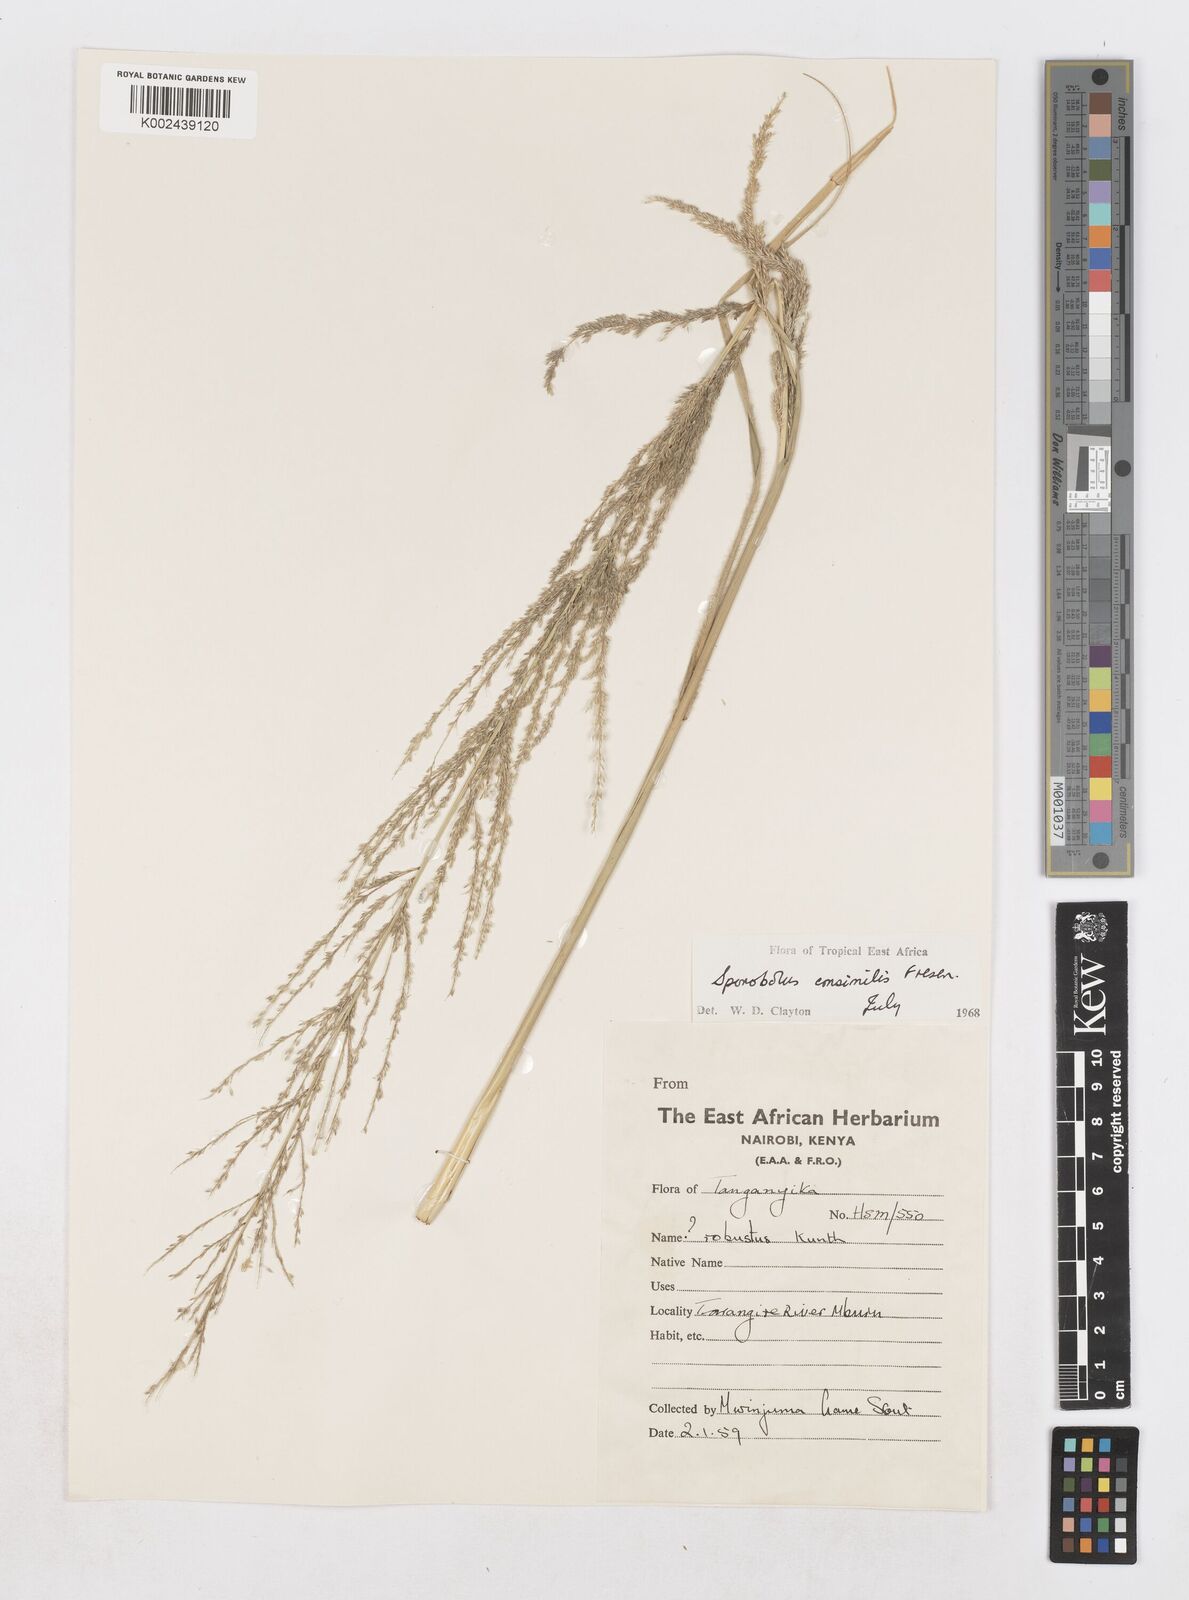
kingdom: Plantae
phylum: Tracheophyta
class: Liliopsida
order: Poales
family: Poaceae
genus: Sporobolus
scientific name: Sporobolus consimilis
